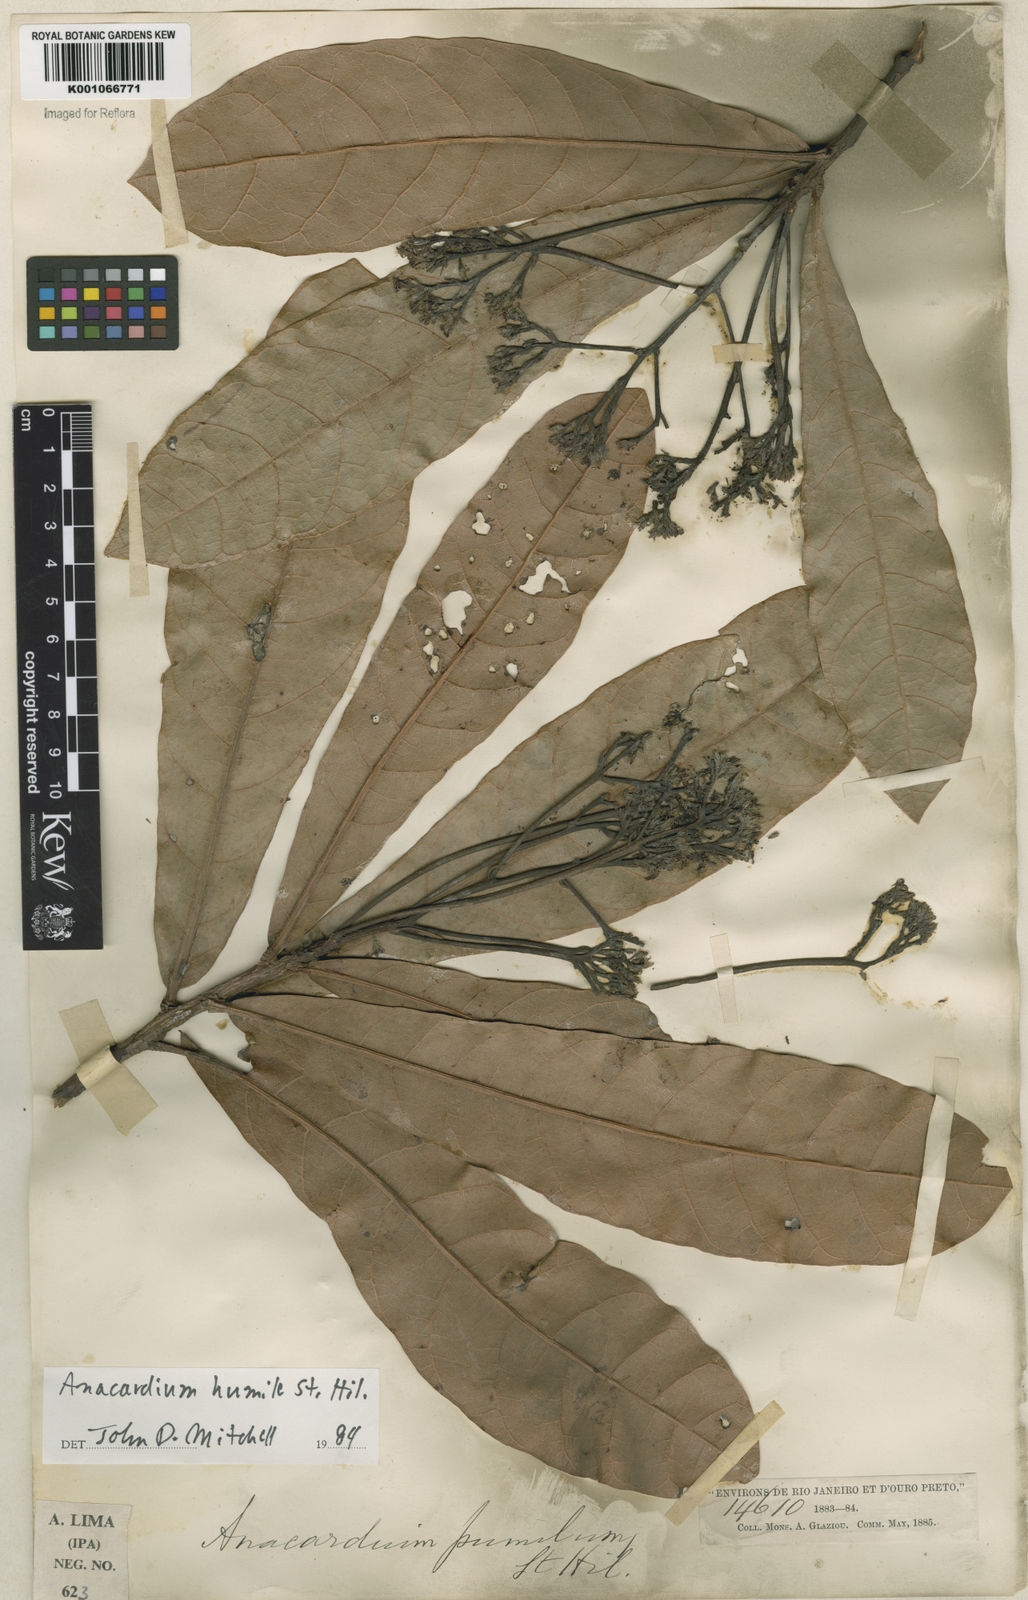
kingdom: Plantae
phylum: Tracheophyta
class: Magnoliopsida
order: Sapindales
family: Anacardiaceae
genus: Anacardium
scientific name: Anacardium humile
